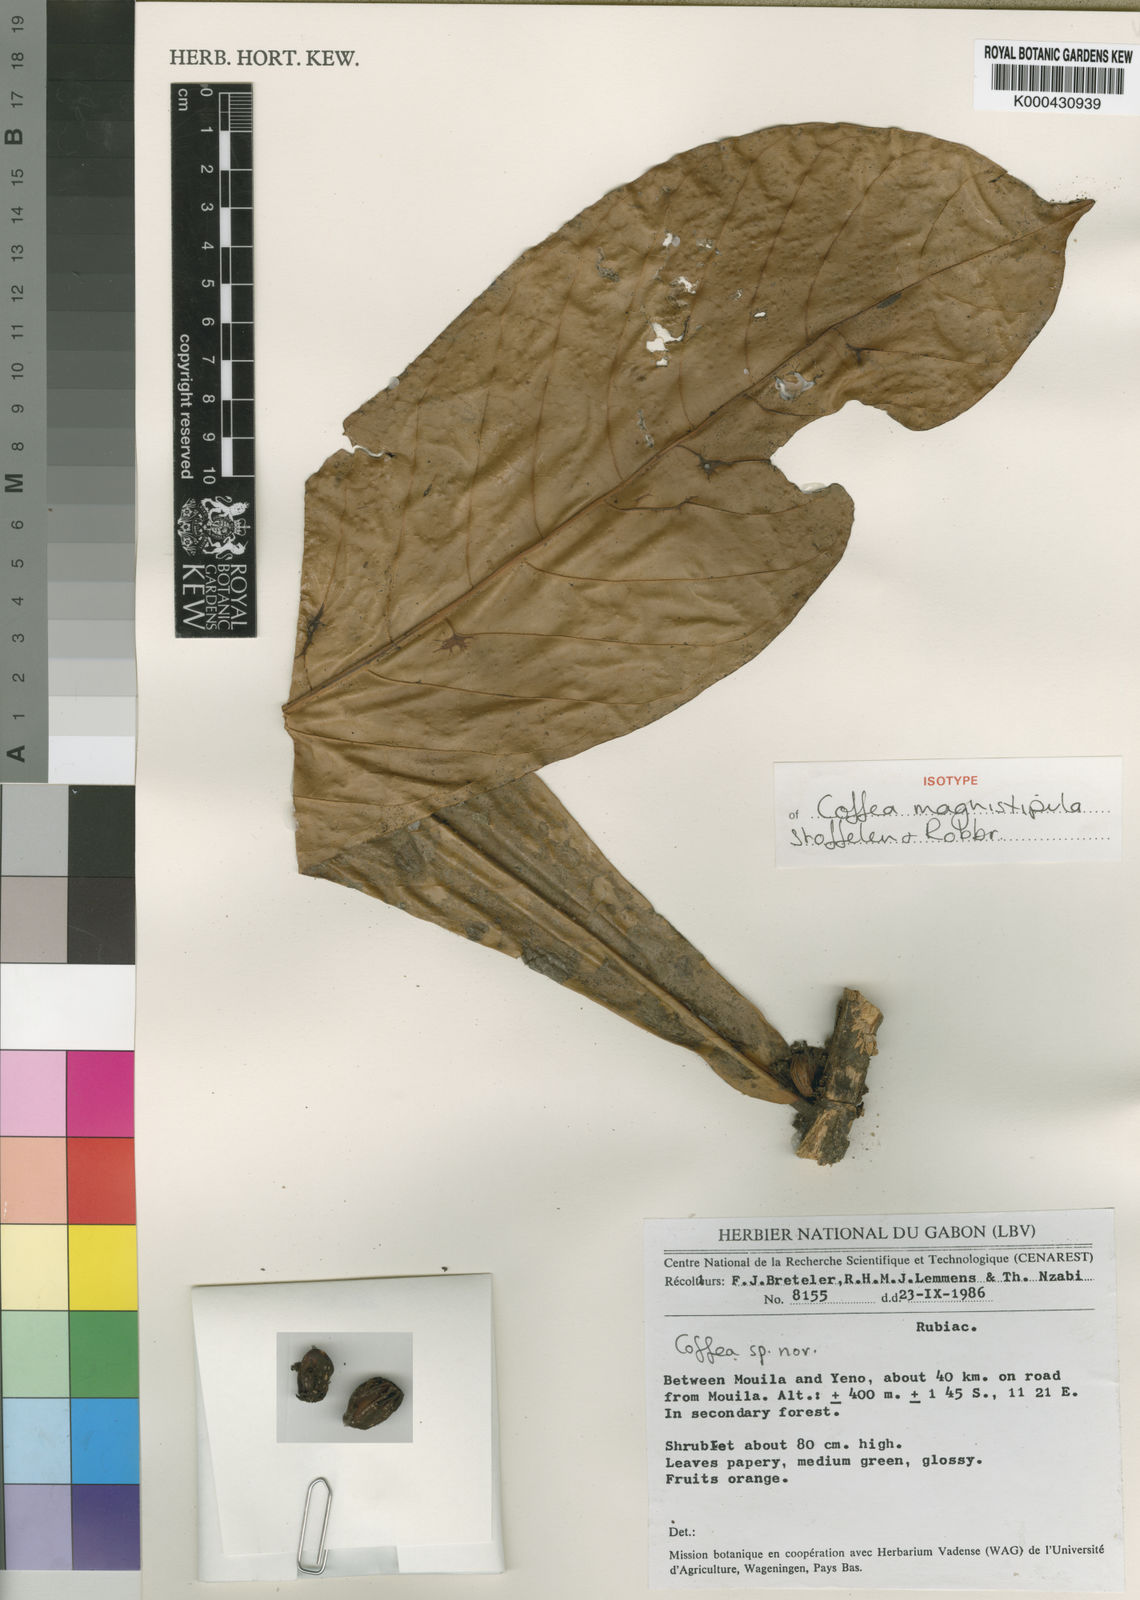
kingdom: Plantae
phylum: Tracheophyta
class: Magnoliopsida
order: Gentianales
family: Rubiaceae
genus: Coffea
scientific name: Coffea magnistipula
